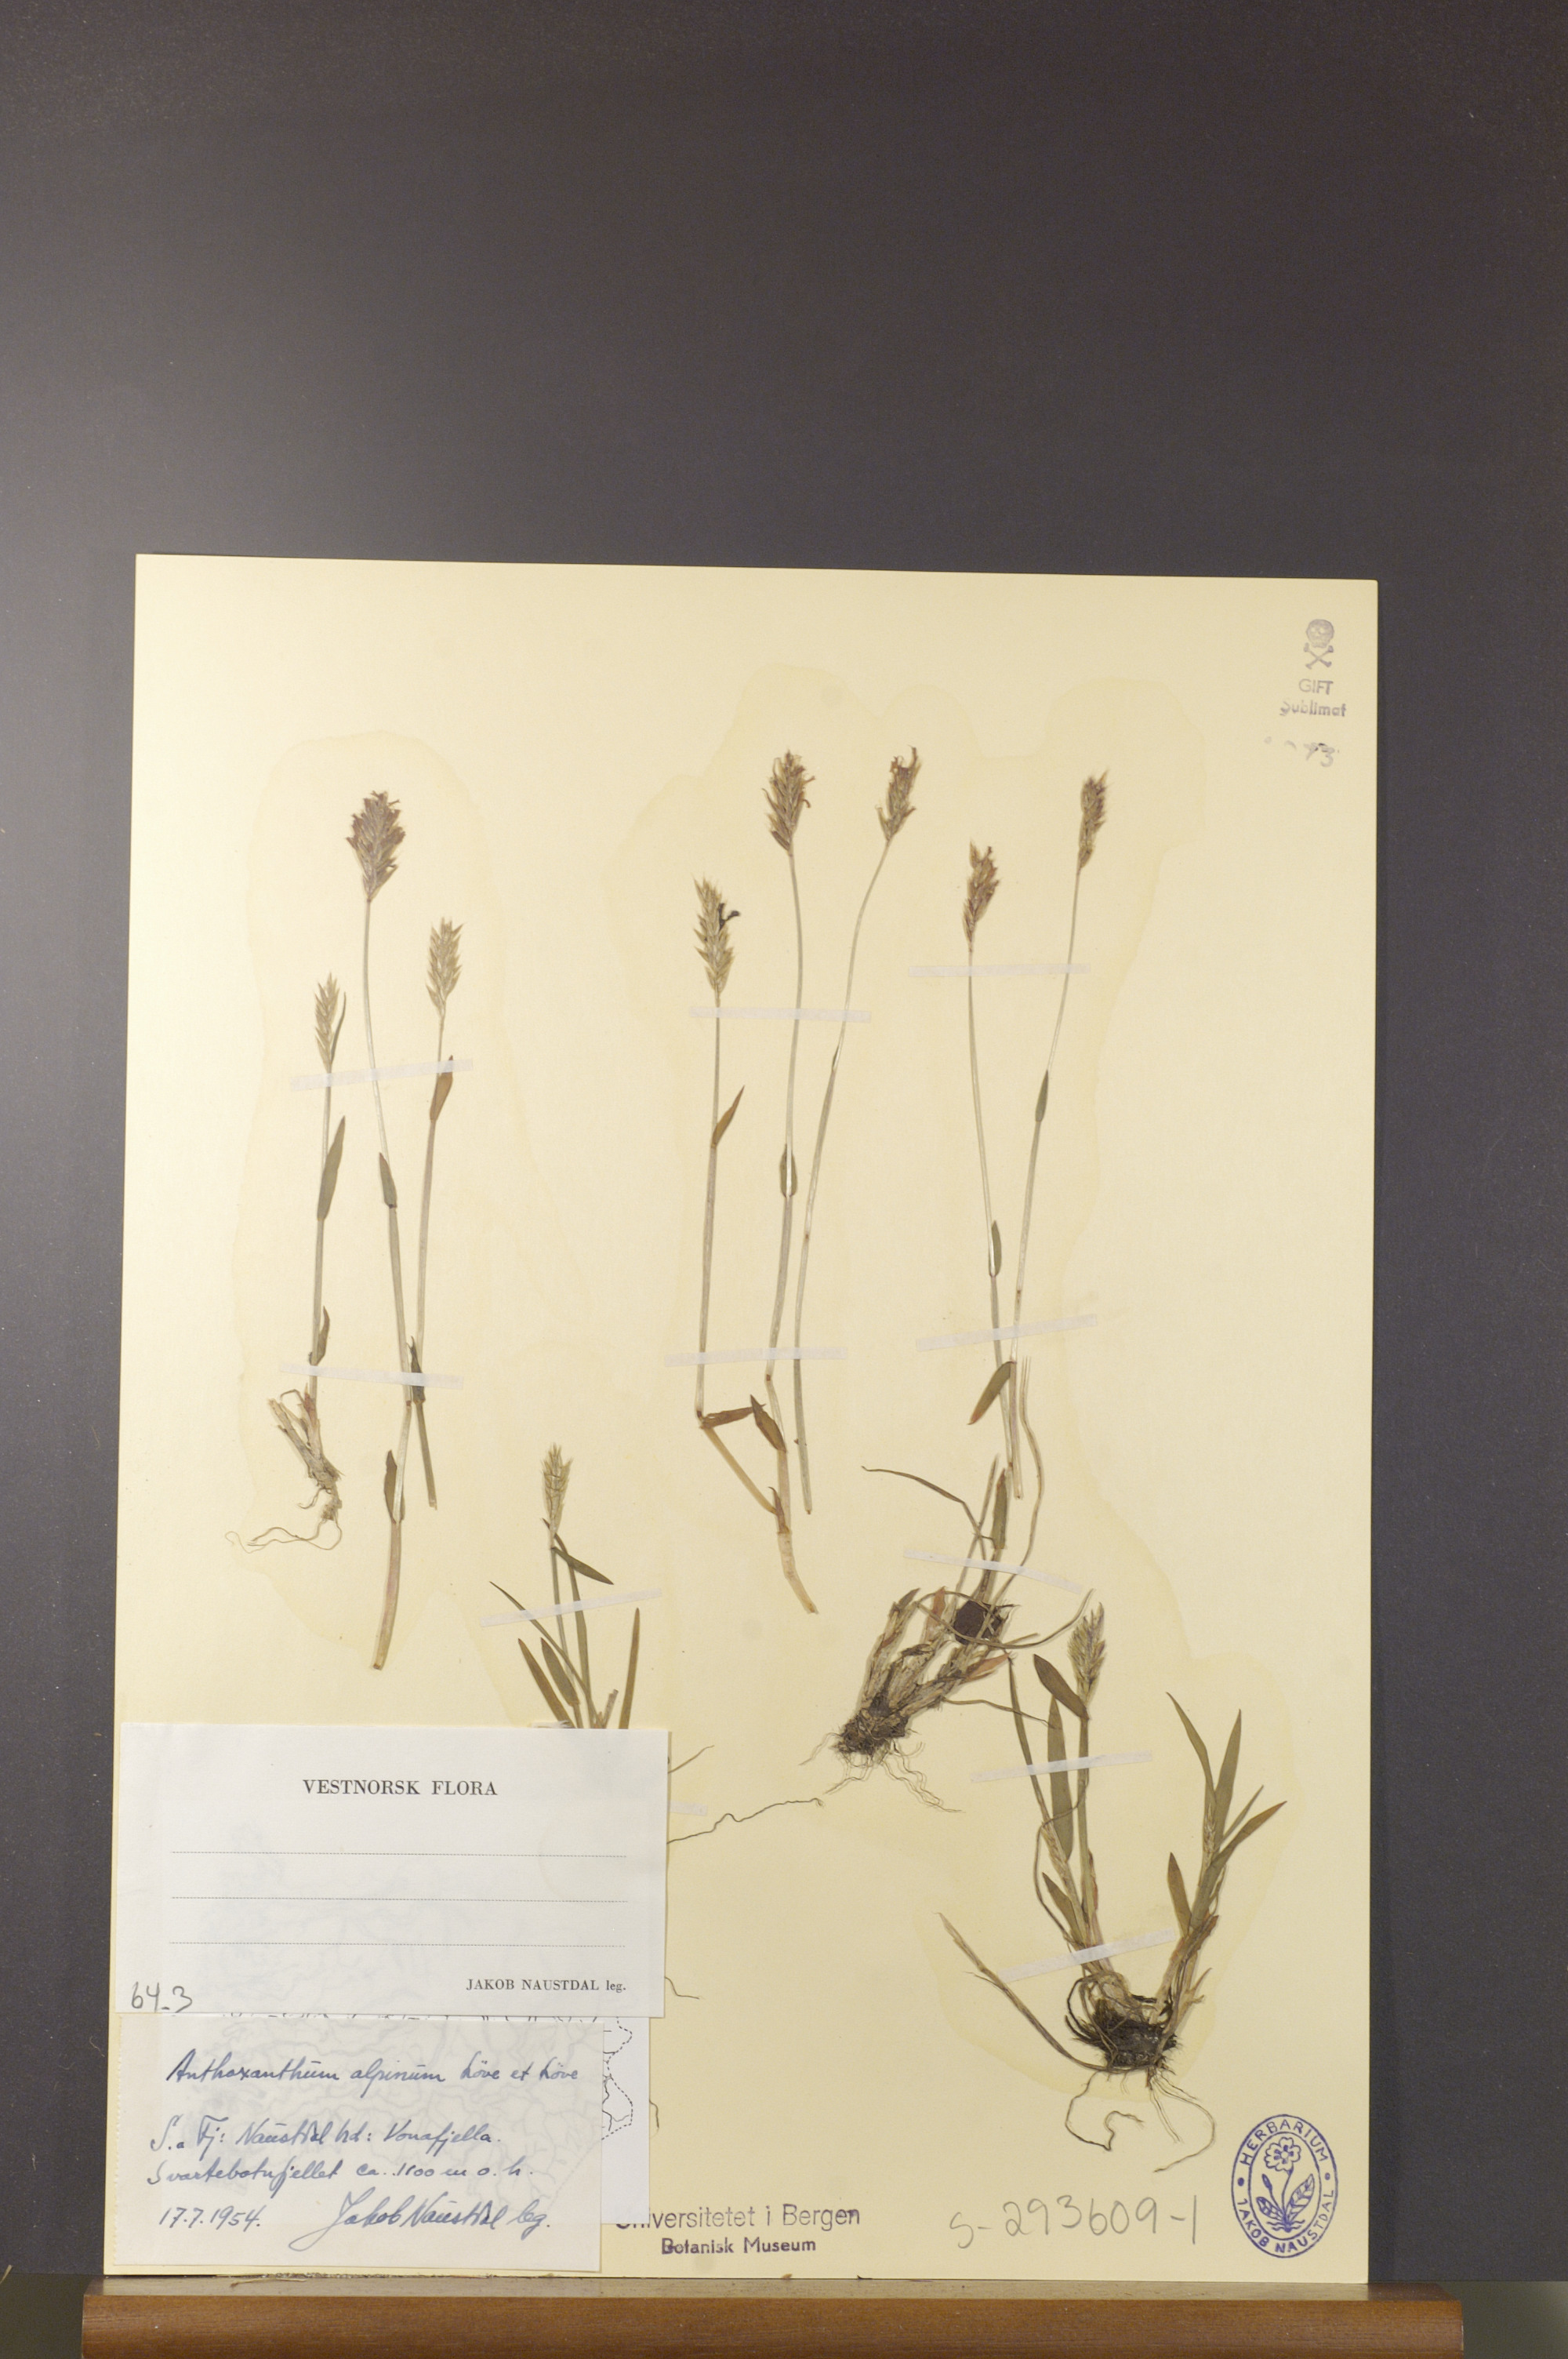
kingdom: Plantae
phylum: Tracheophyta
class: Liliopsida
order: Poales
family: Poaceae
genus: Anthoxanthum
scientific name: Anthoxanthum nipponicum
